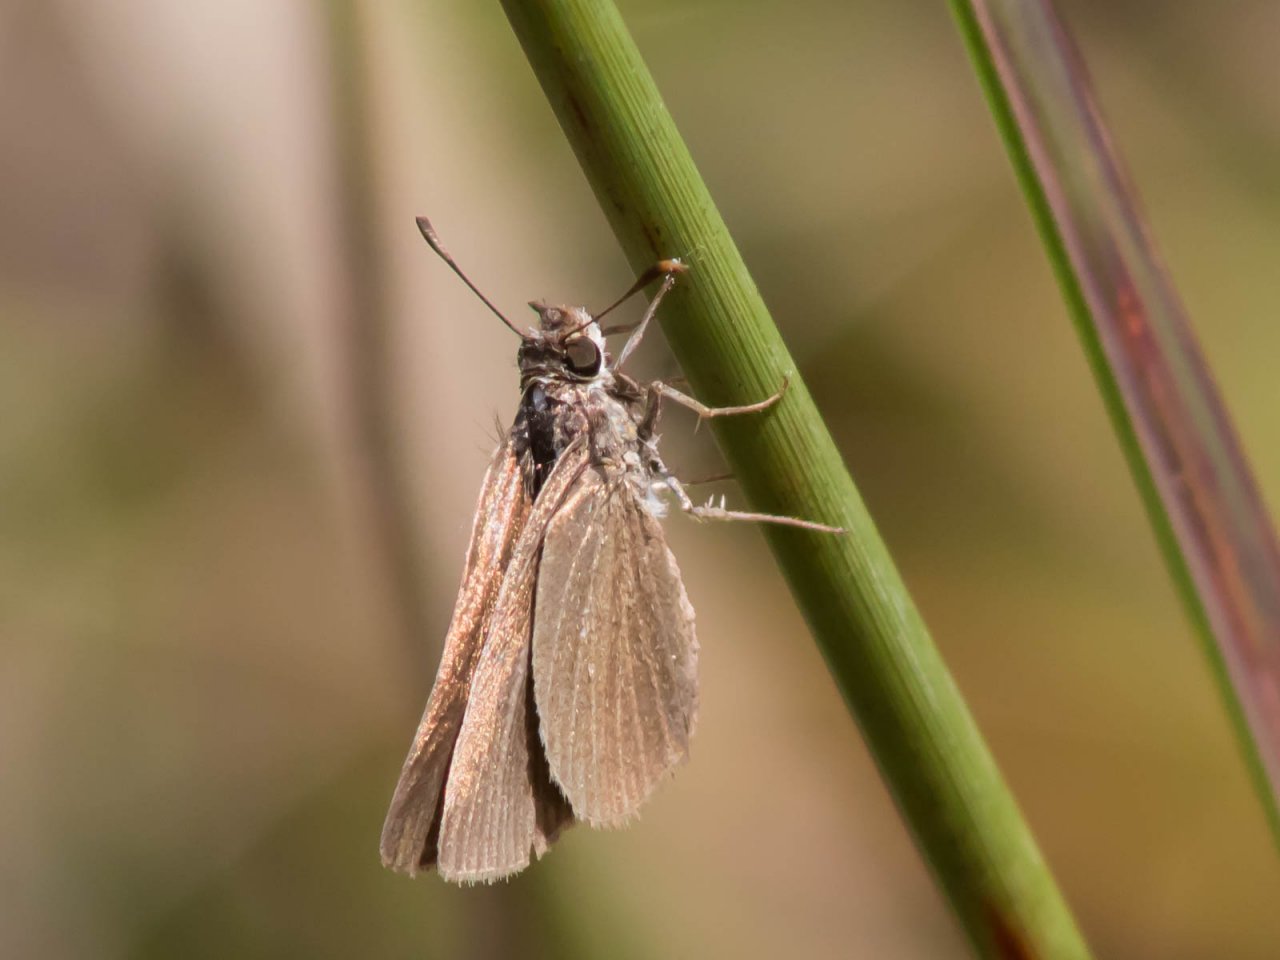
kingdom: Animalia
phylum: Arthropoda
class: Insecta
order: Lepidoptera
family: Hesperiidae
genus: Nastra
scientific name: Nastra lherminier
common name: Swarthy Skipper
